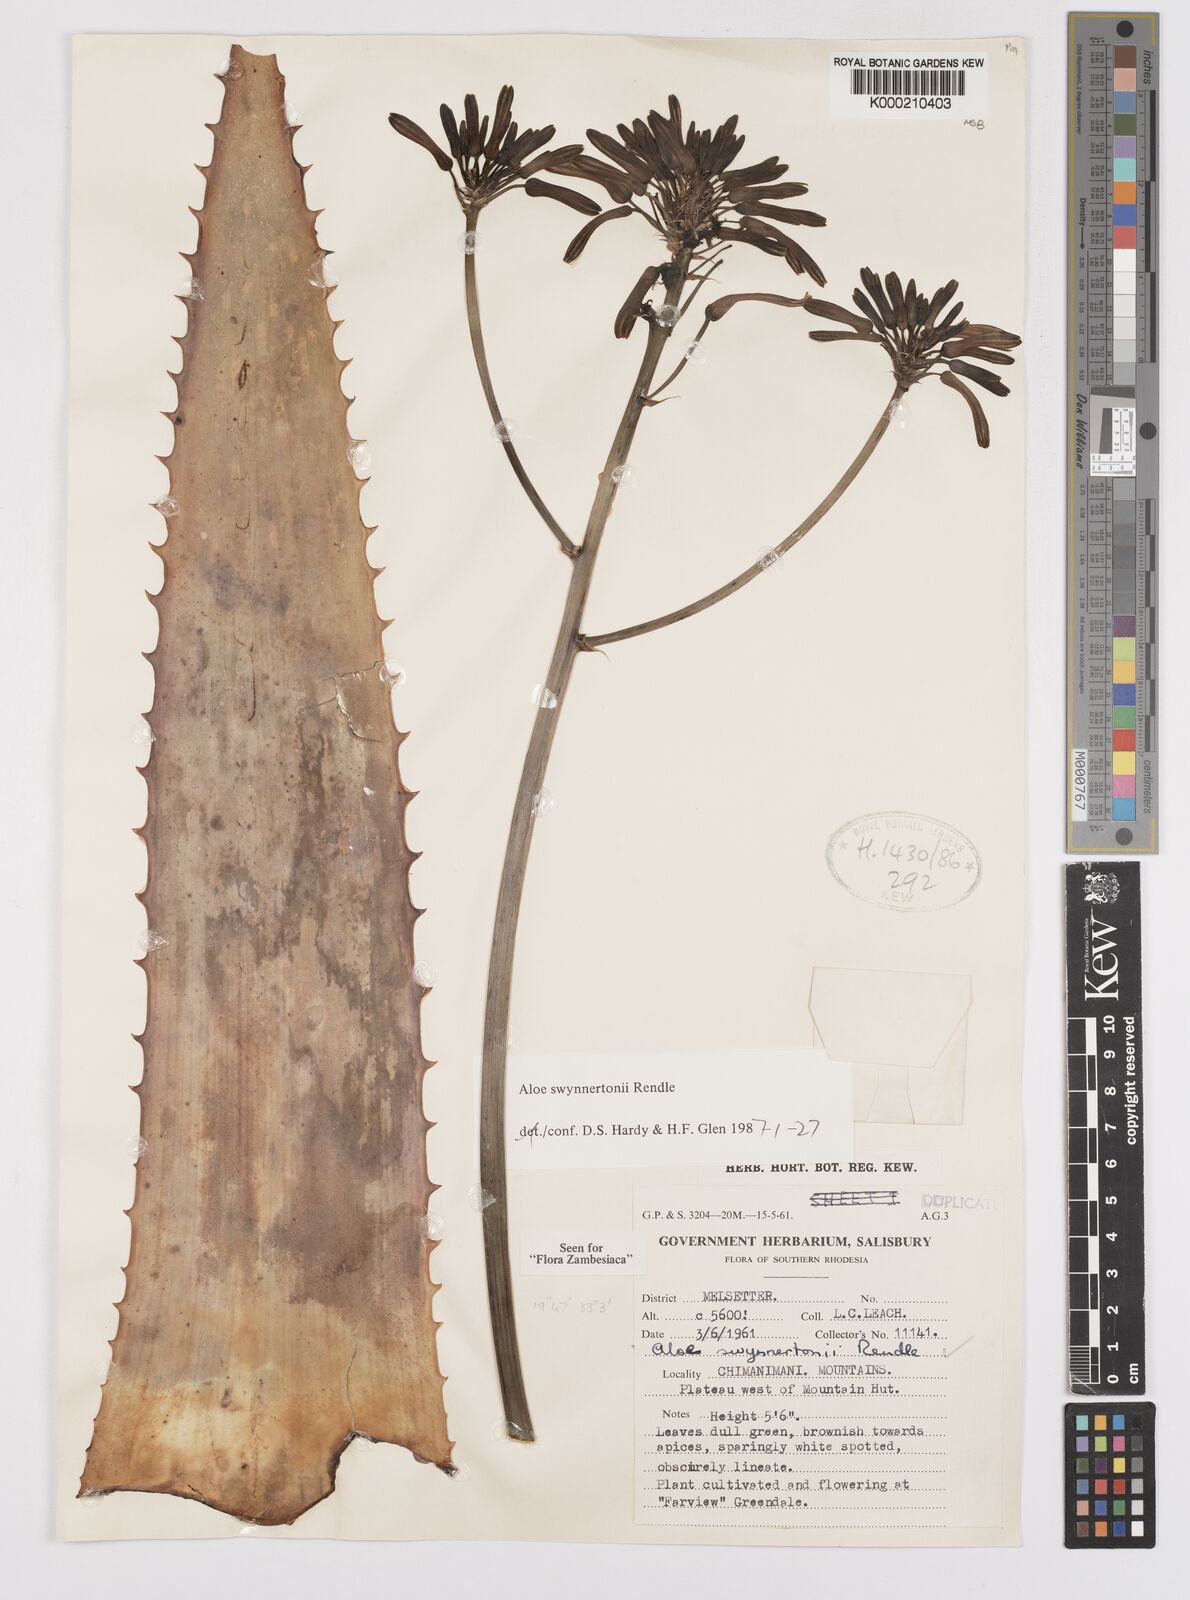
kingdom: Plantae
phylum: Tracheophyta
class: Liliopsida
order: Asparagales
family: Asphodelaceae
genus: Aloe
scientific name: Aloe swynnertonii
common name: Swynnerton's aloe
